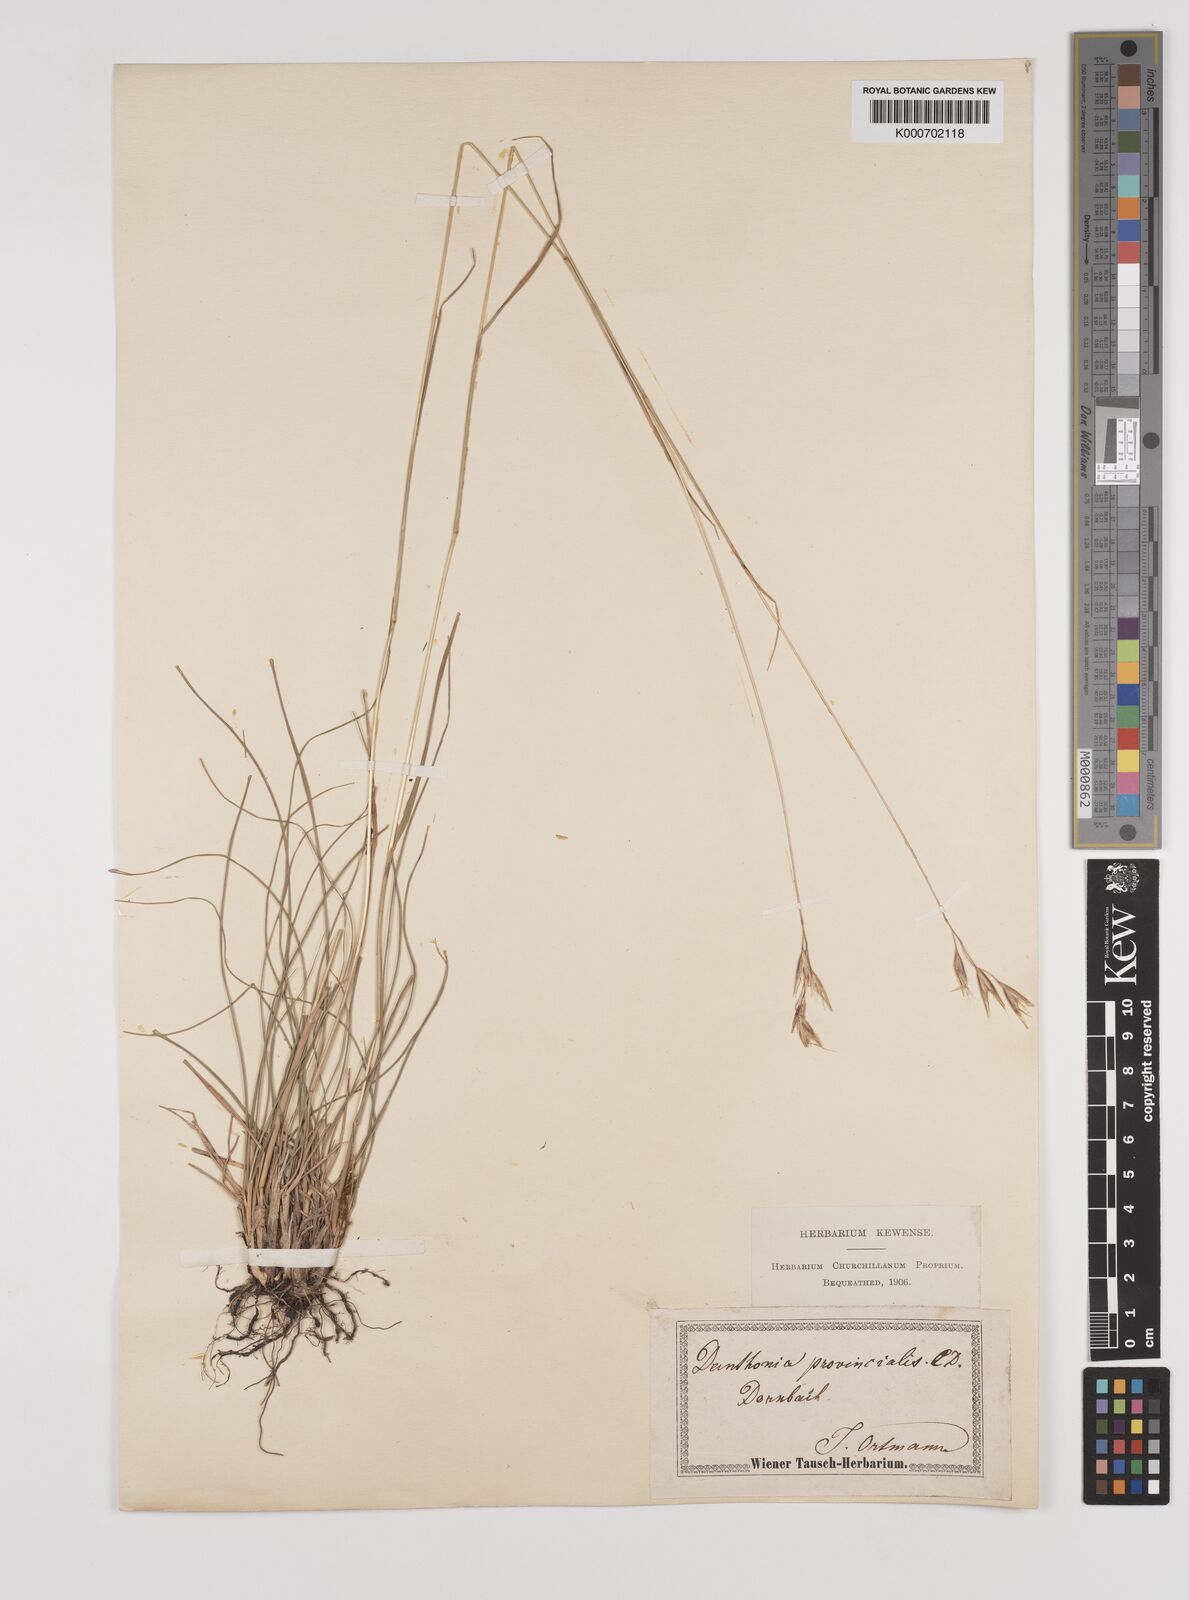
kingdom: Plantae
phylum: Tracheophyta
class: Liliopsida
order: Poales
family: Poaceae
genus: Danthonia
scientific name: Danthonia alpina
